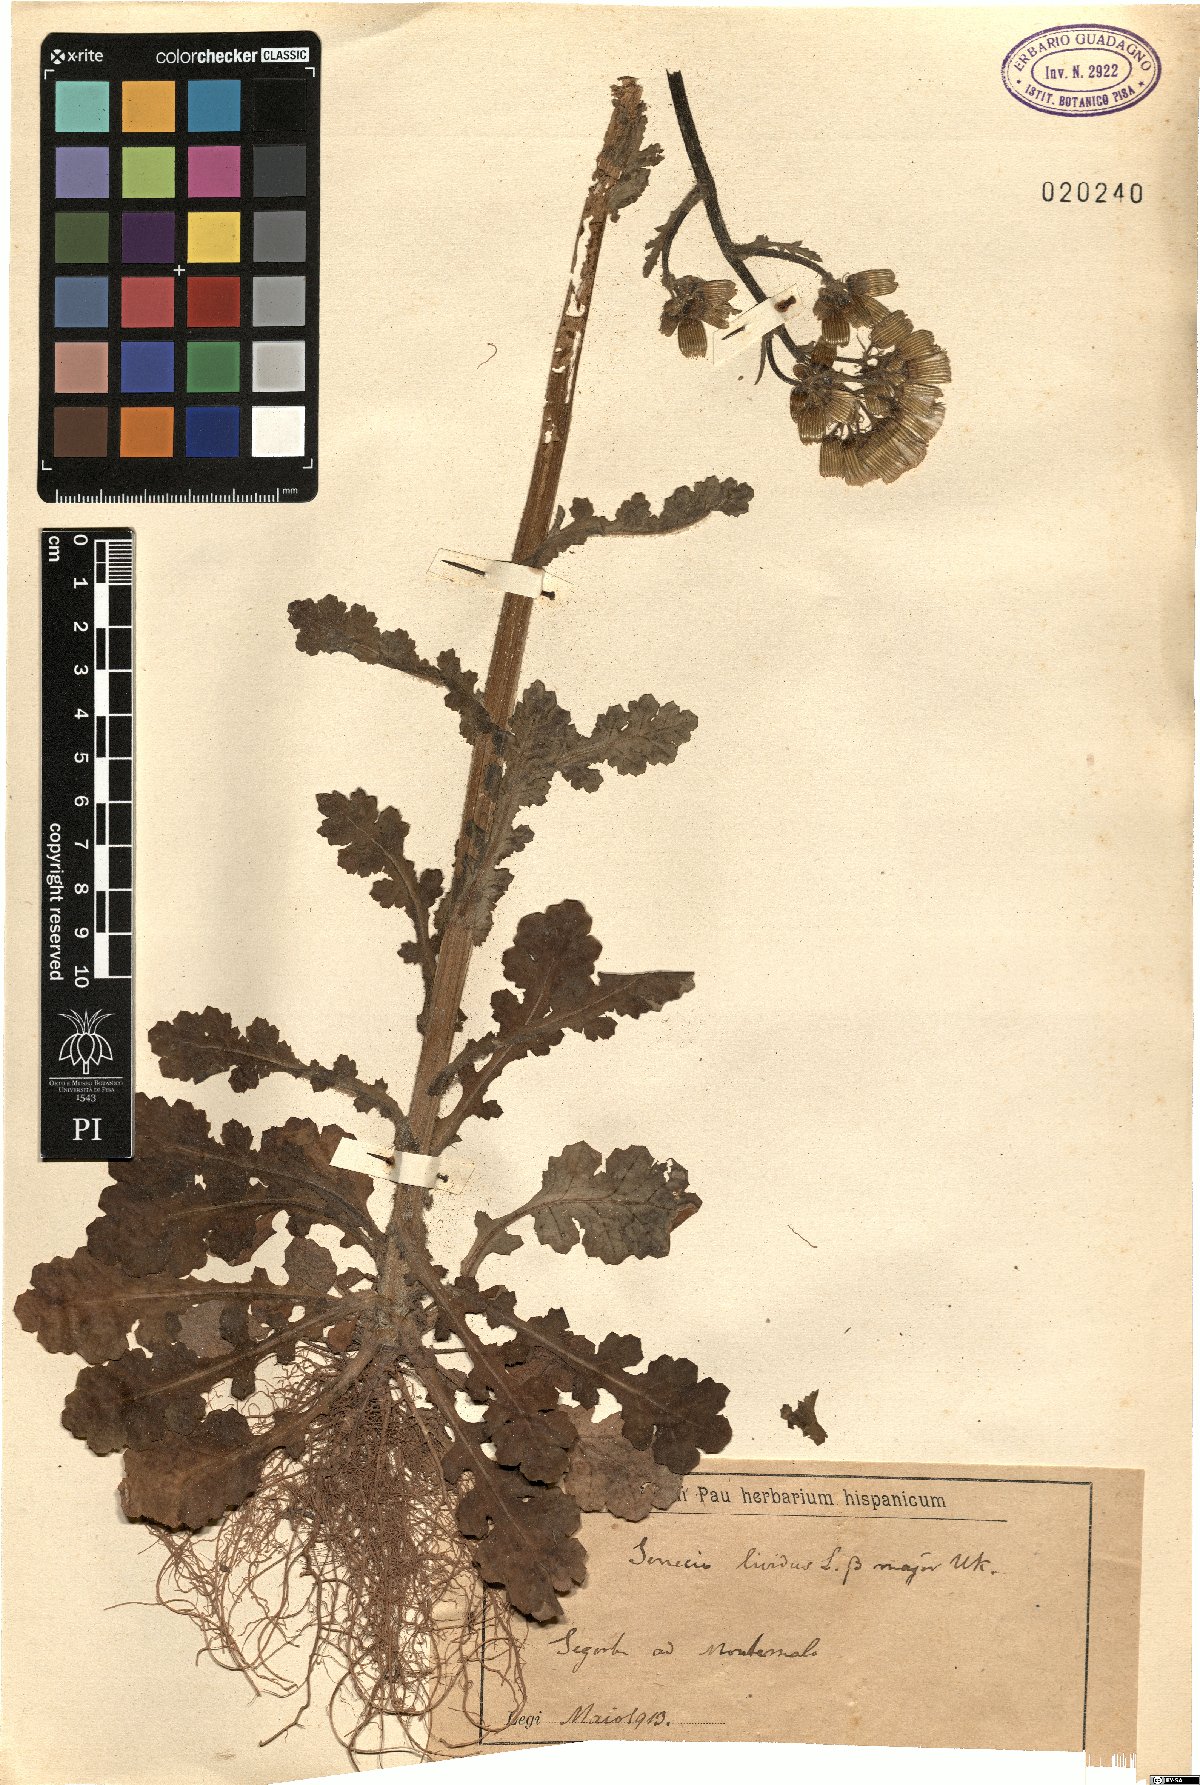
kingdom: Plantae
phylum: Tracheophyta
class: Magnoliopsida
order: Asterales
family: Asteraceae
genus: Senecio
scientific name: Senecio lividus
